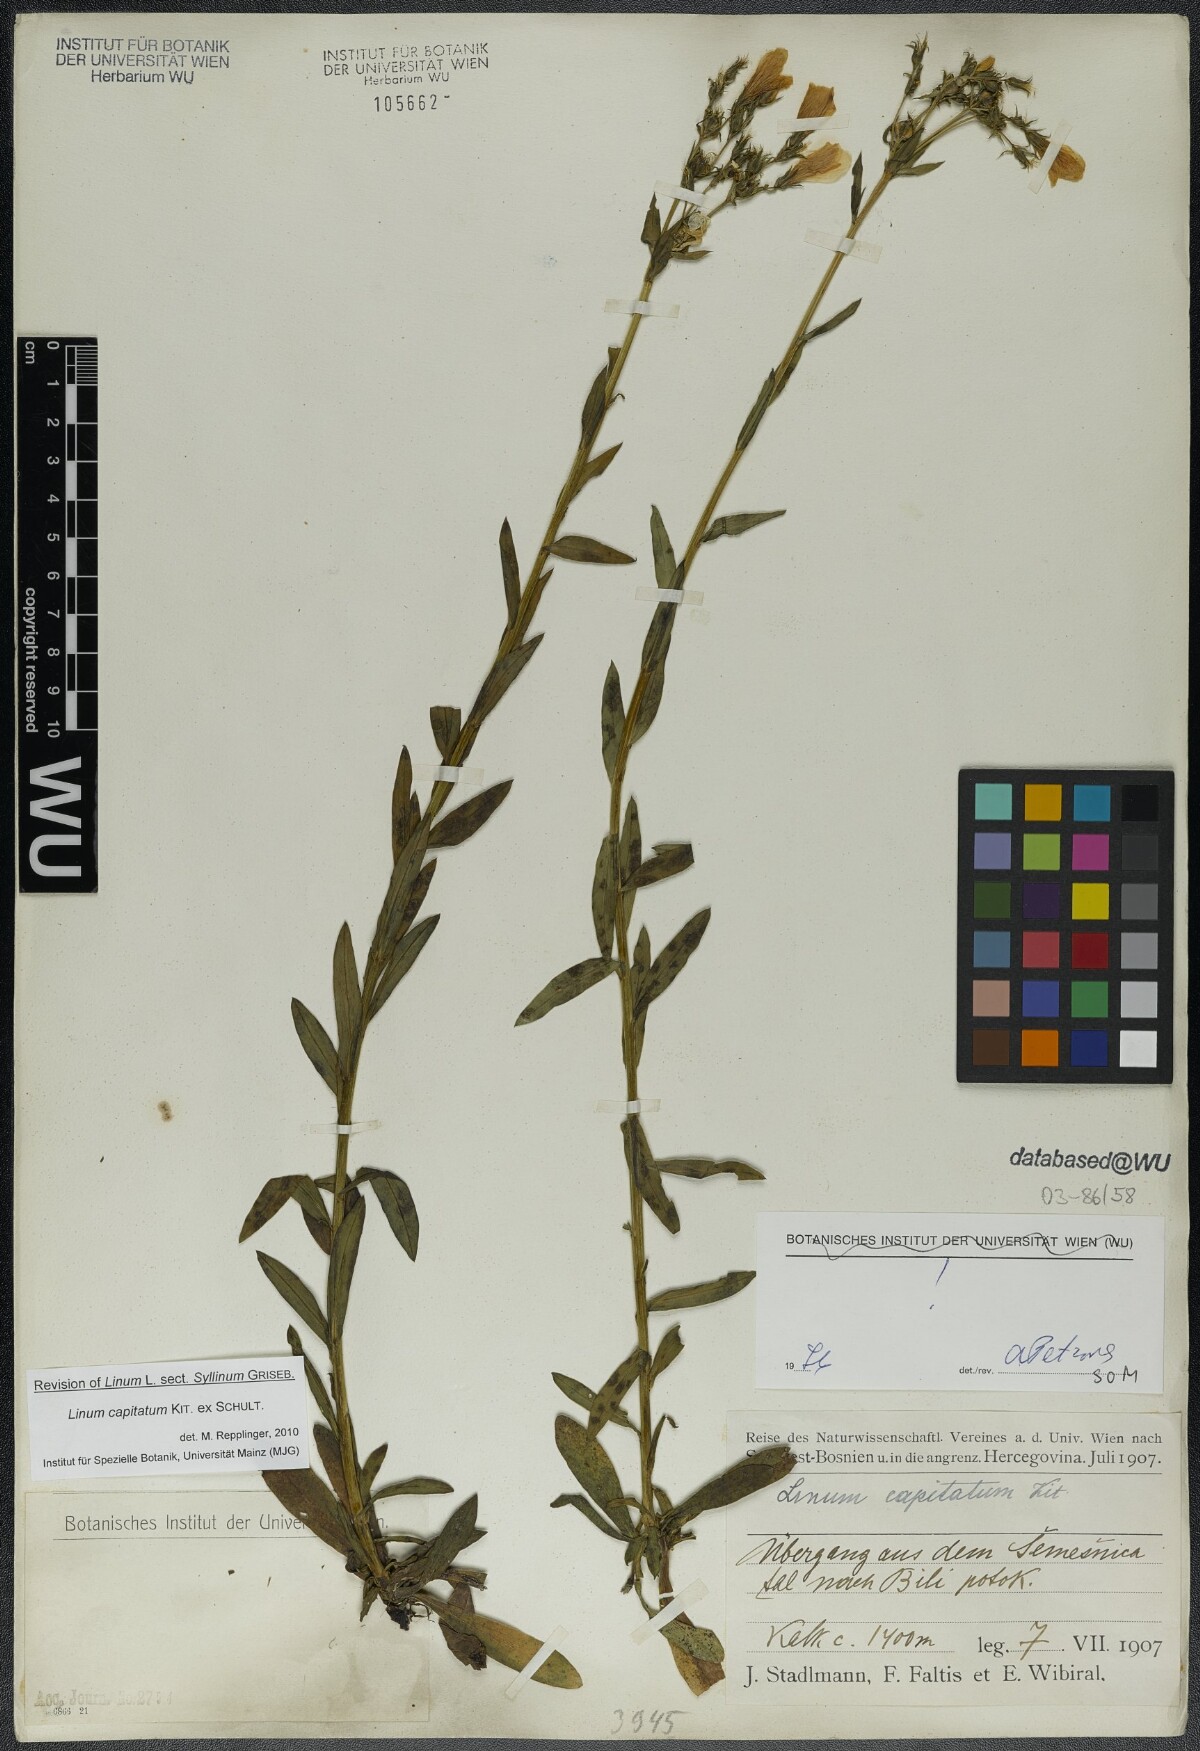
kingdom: Plantae
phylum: Tracheophyta
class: Magnoliopsida
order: Malpighiales
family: Linaceae
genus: Linum
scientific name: Linum capitatum
